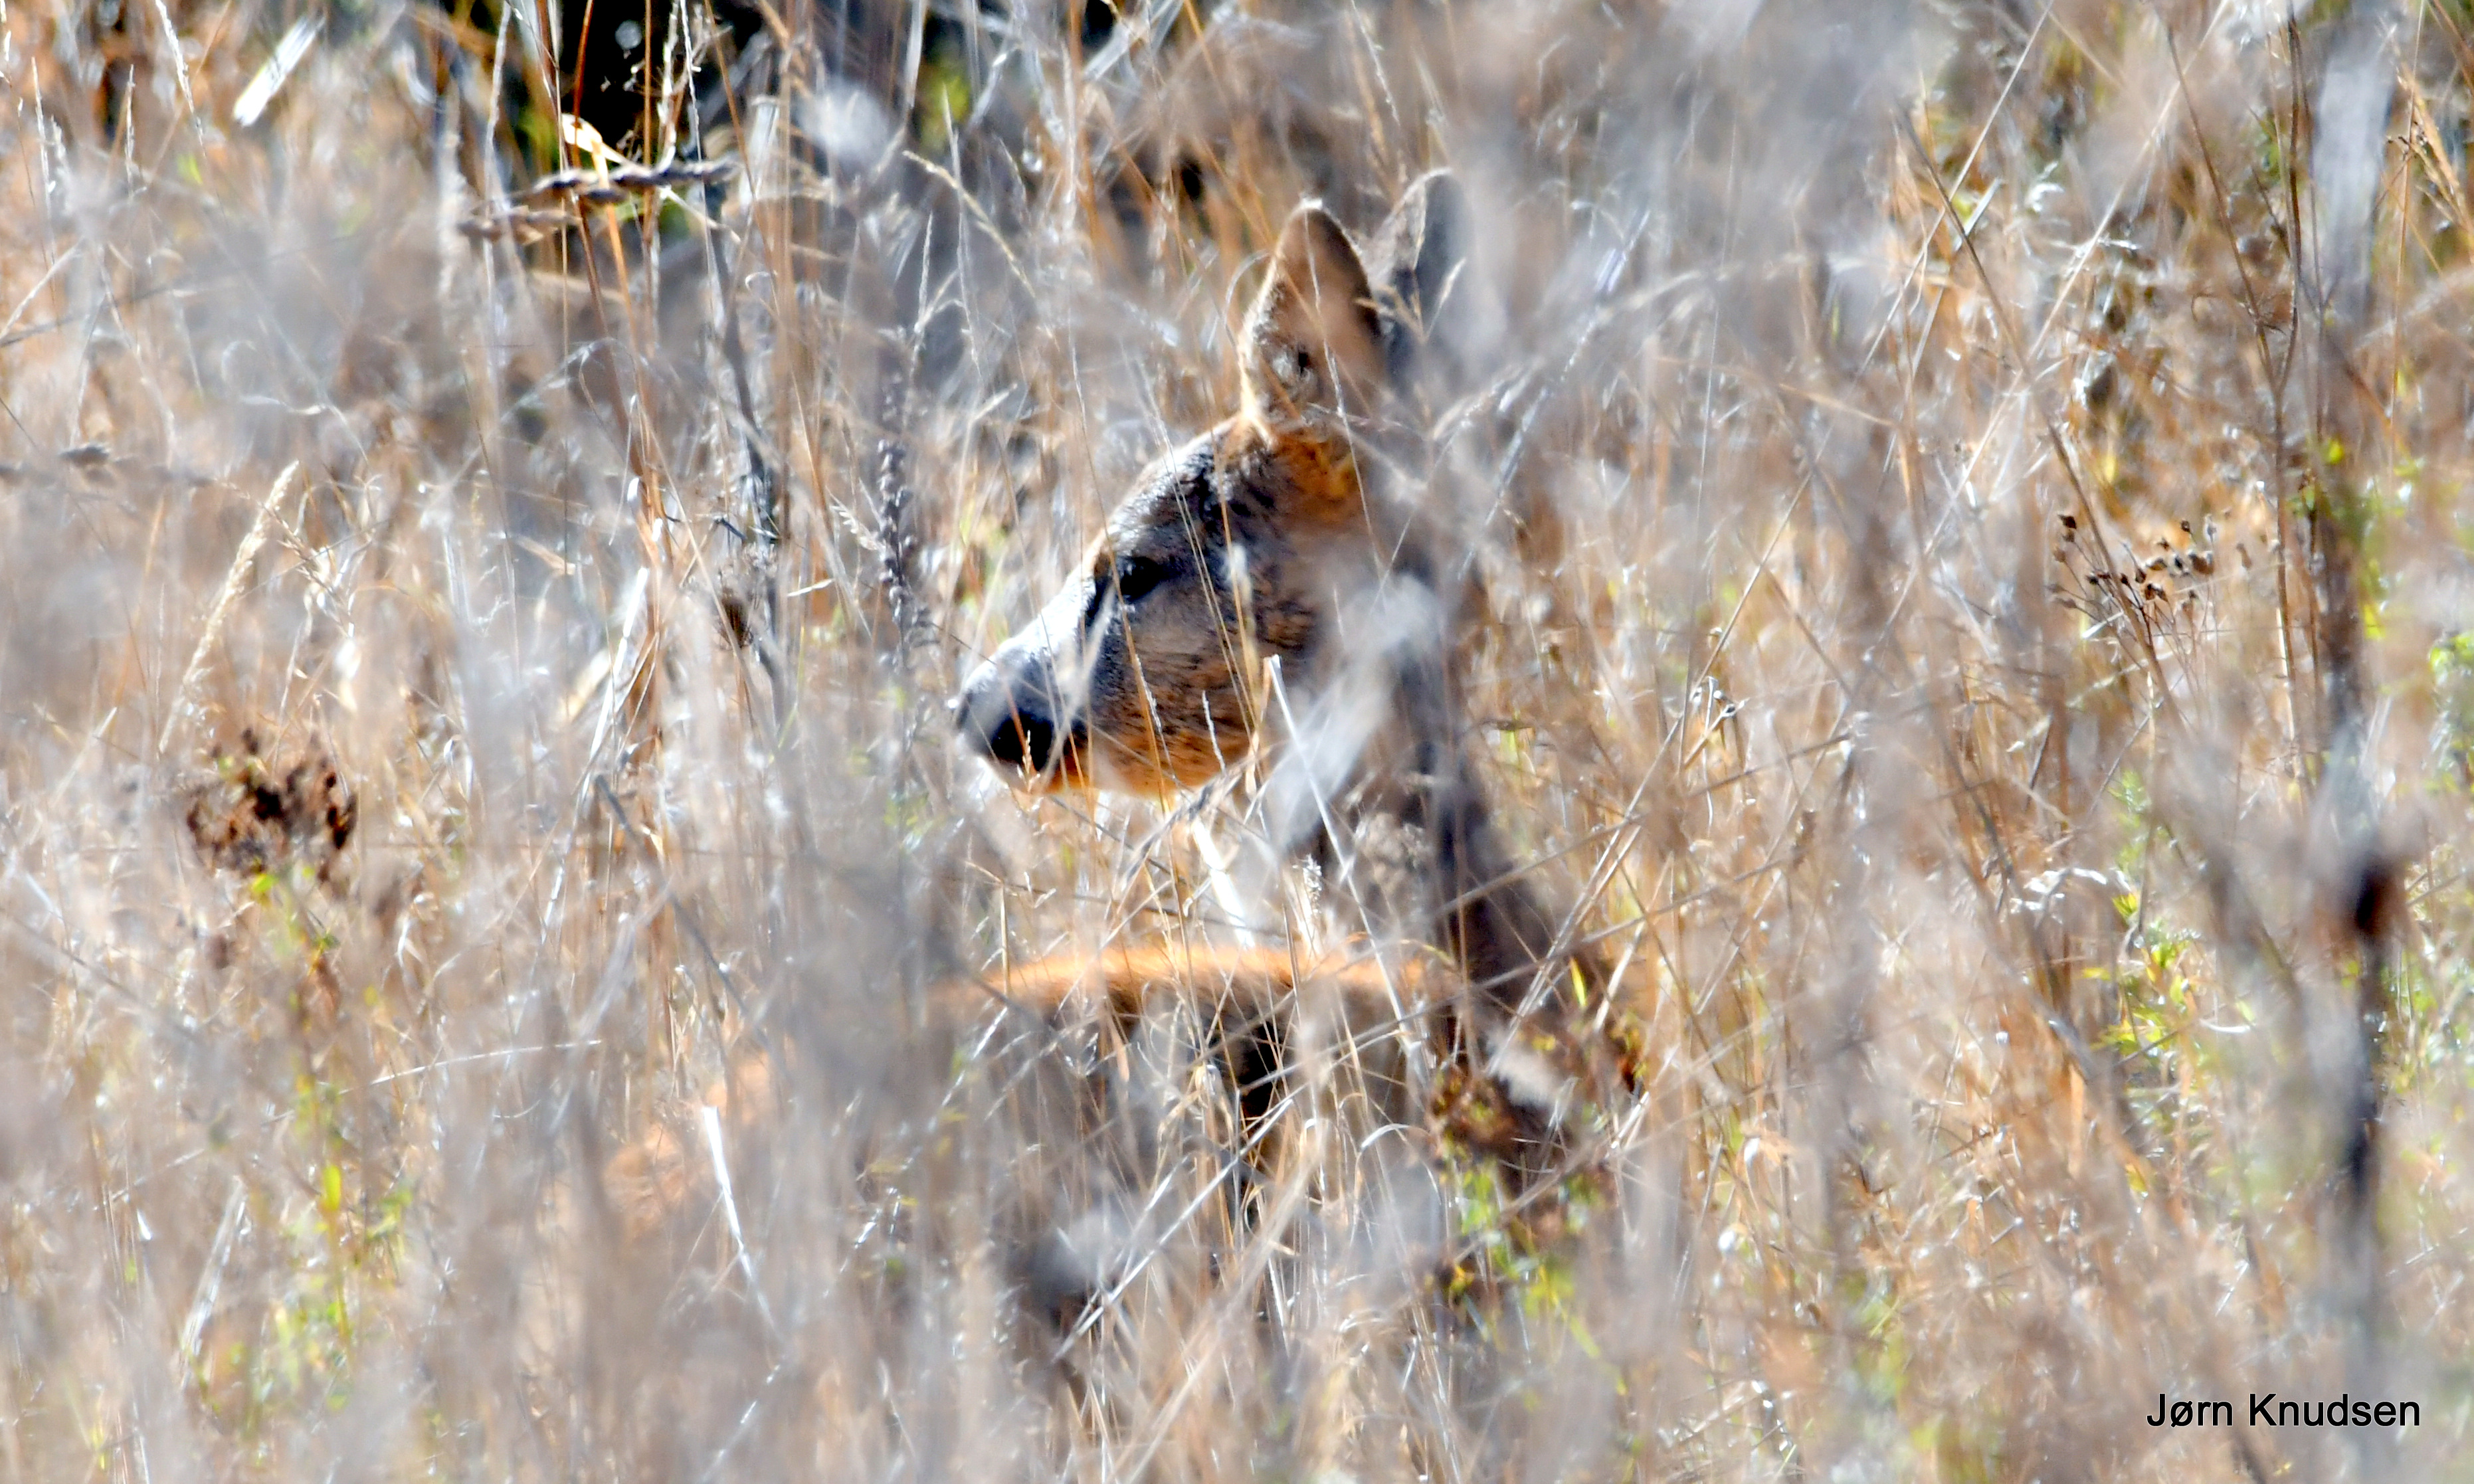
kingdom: Animalia
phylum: Chordata
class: Mammalia
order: Artiodactyla
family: Cervidae
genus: Capreolus
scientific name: Capreolus capreolus
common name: Rådyr
